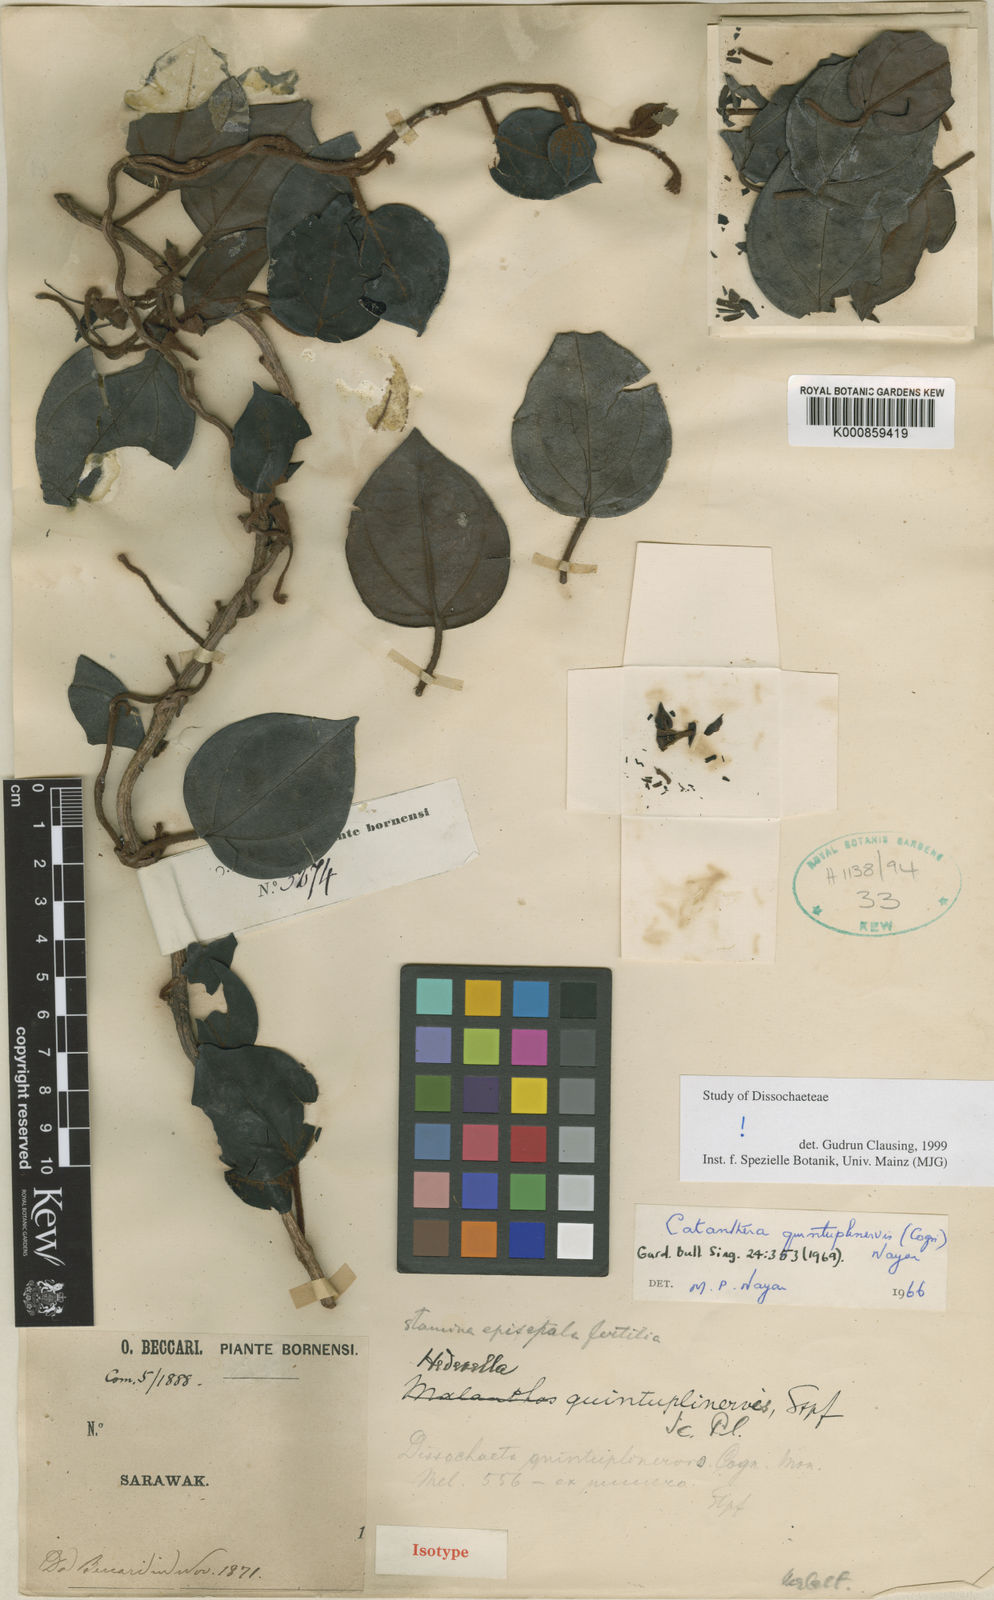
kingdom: Plantae
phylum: Tracheophyta
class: Magnoliopsida
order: Myrtales
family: Melastomataceae
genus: Catanthera
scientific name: Catanthera quintuplinervis
